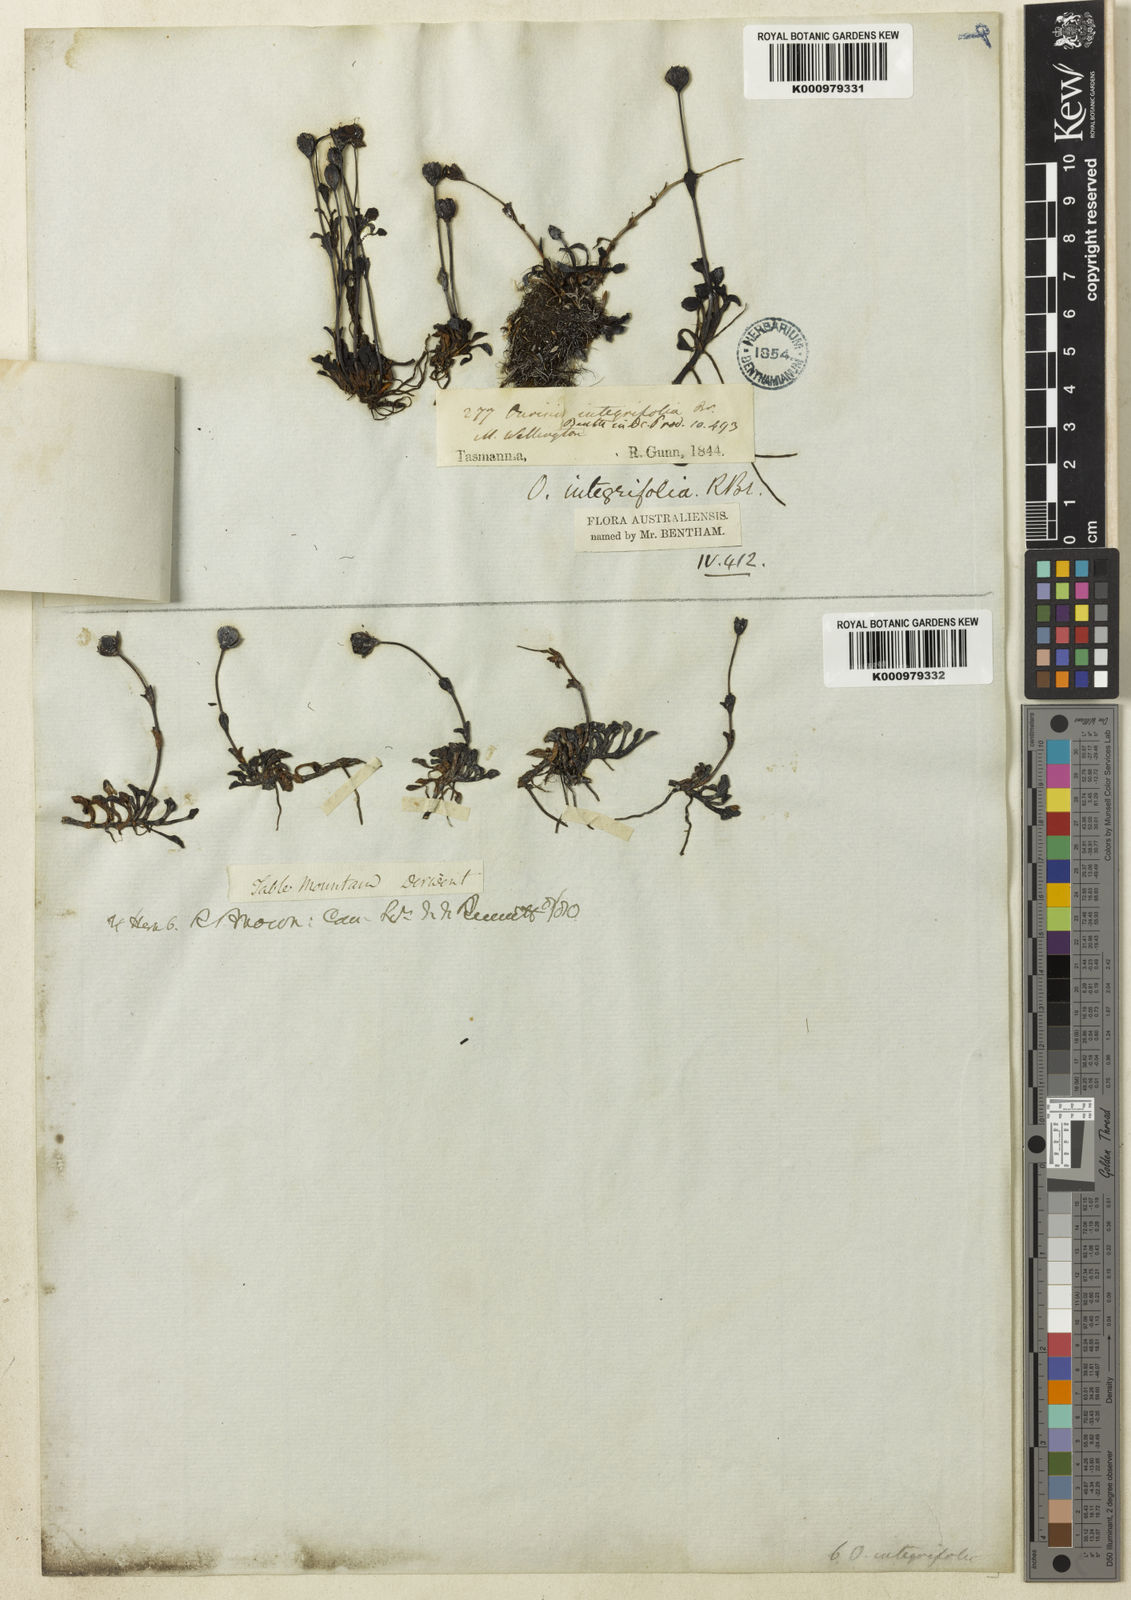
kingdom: Plantae
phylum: Tracheophyta
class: Magnoliopsida
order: Lamiales
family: Plantaginaceae
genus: Ourisia
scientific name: Ourisia integrifolia
